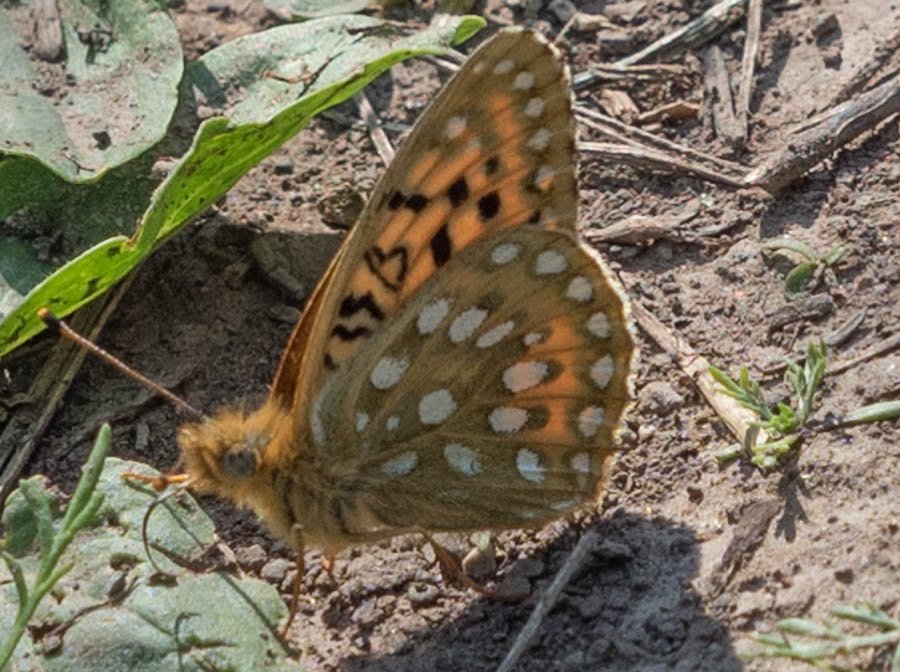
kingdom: Animalia
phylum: Arthropoda
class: Insecta
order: Lepidoptera
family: Nymphalidae
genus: Speyeria
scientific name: Speyeria mormonia
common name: Mormon Fritillary
